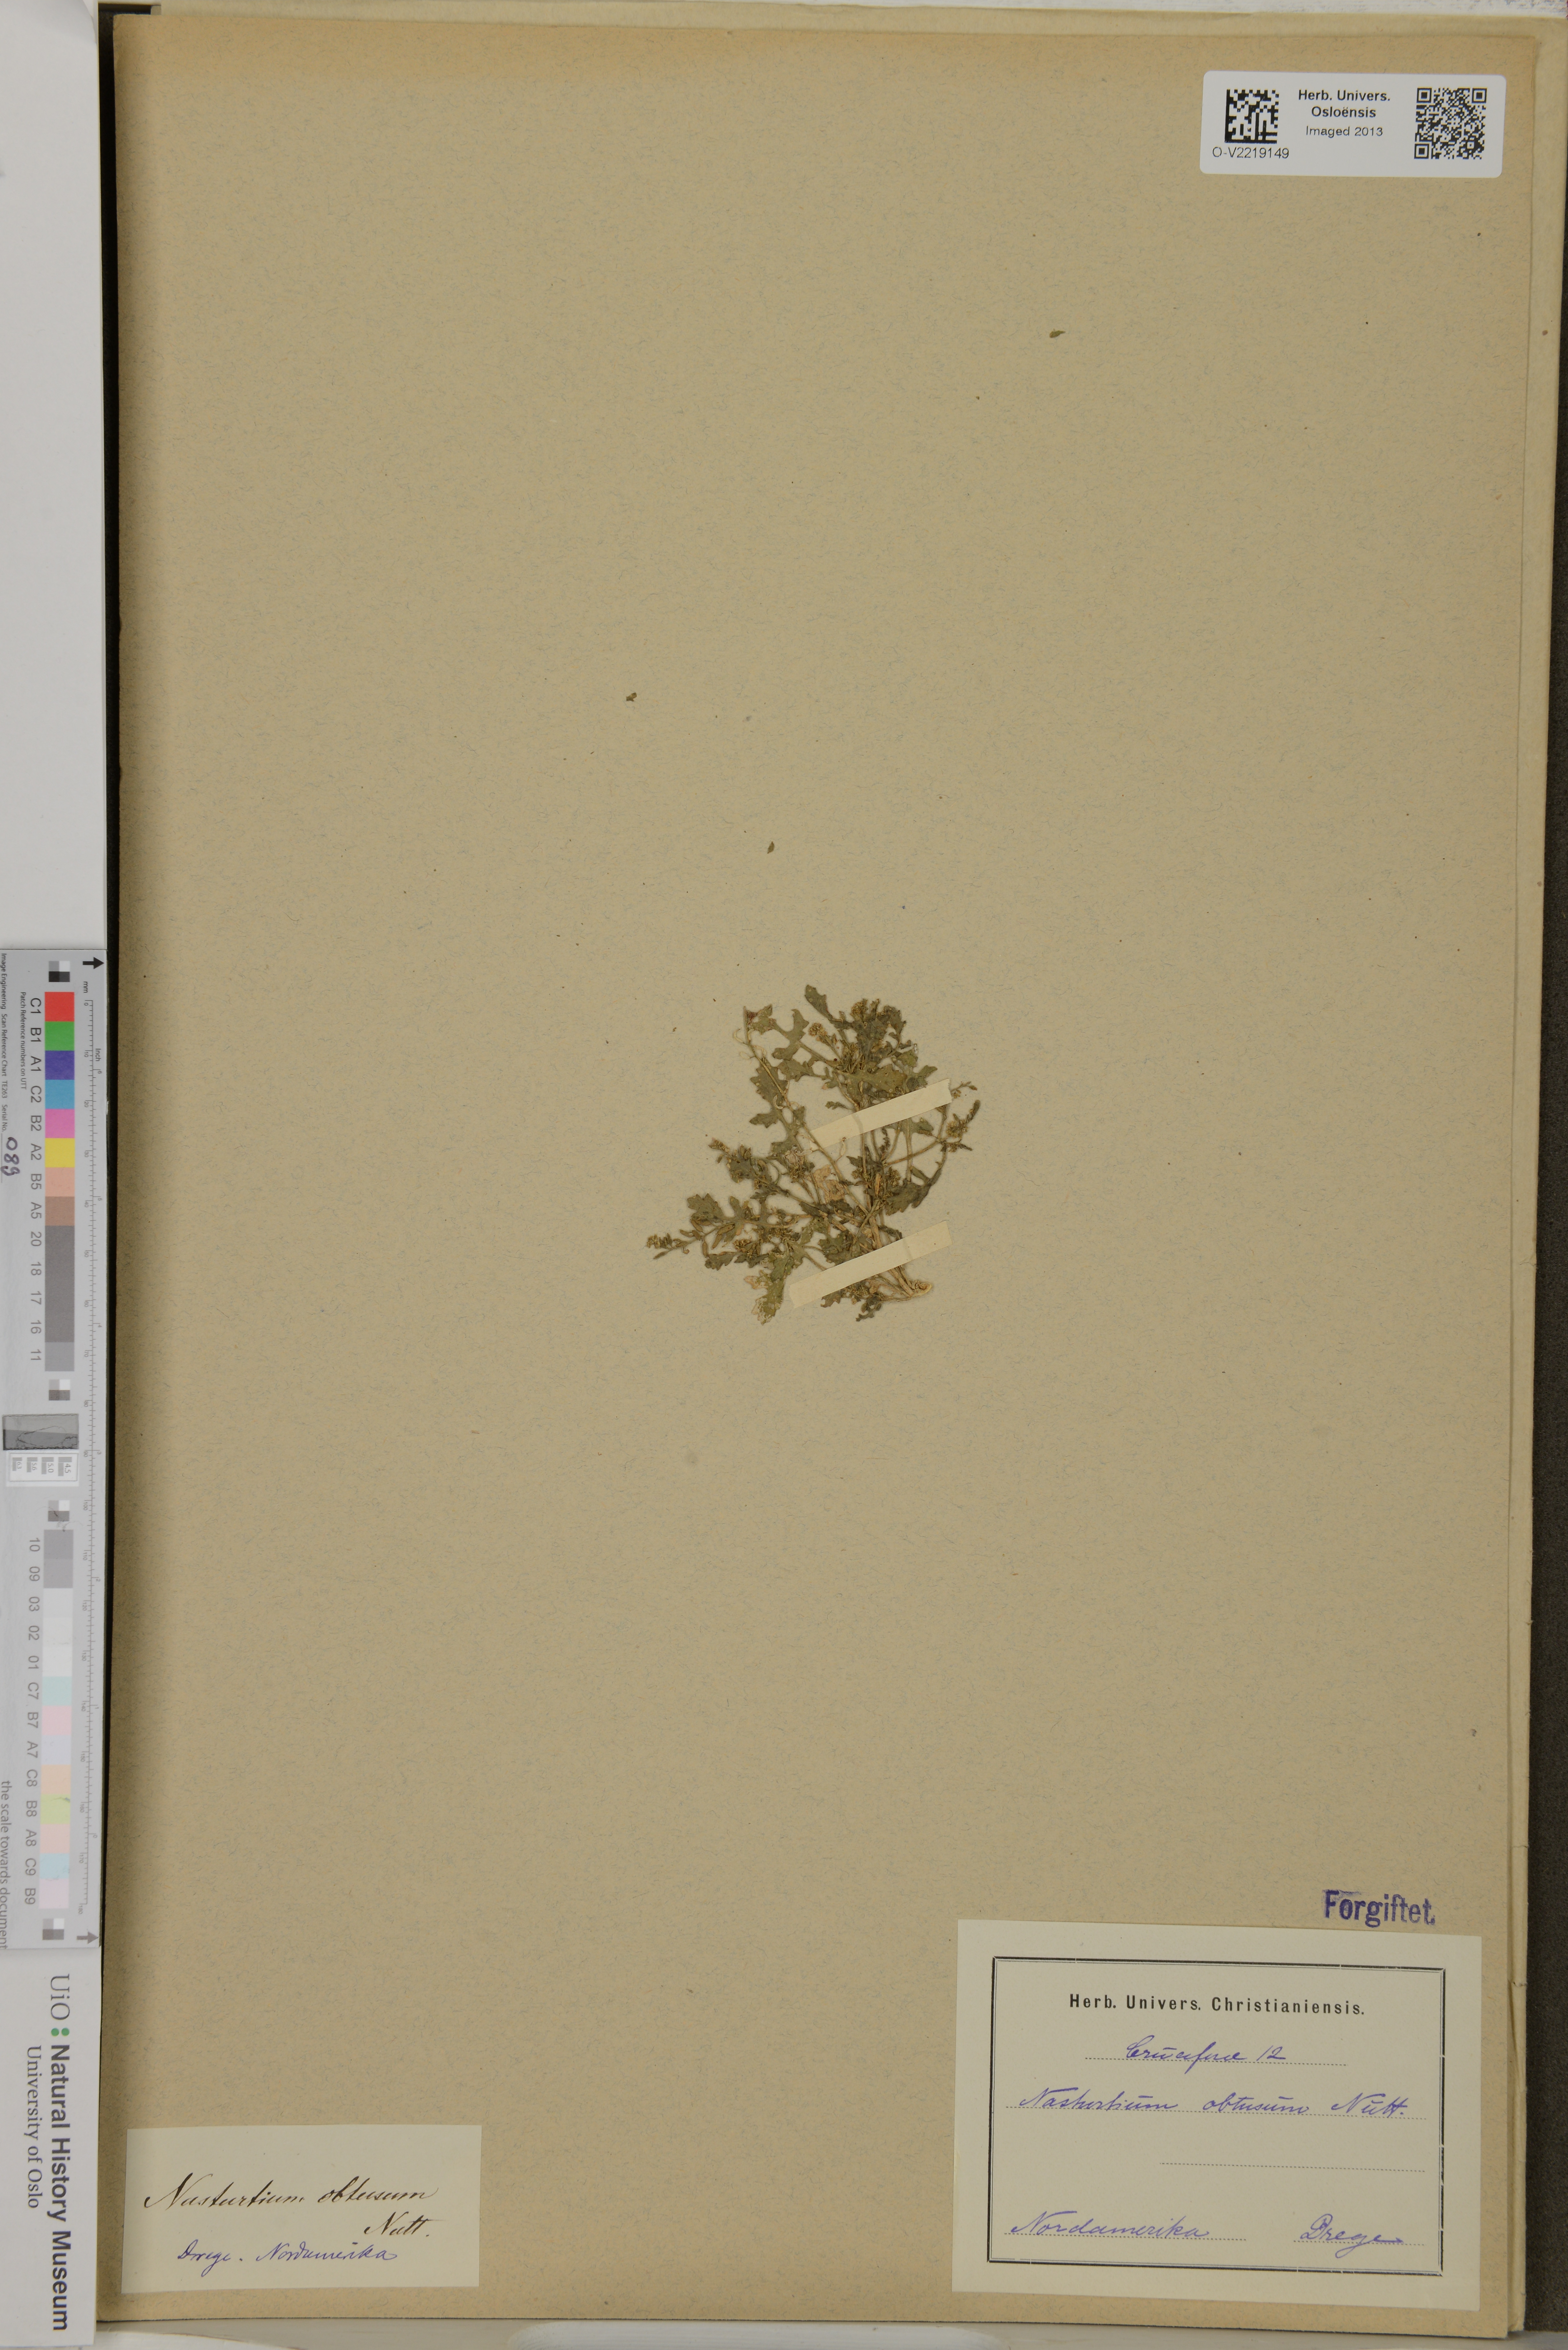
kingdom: Plantae
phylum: Tracheophyta
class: Magnoliopsida
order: Brassicales
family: Brassicaceae
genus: Rorippa
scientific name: Rorippa indica
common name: Variableleaf yellowcress
